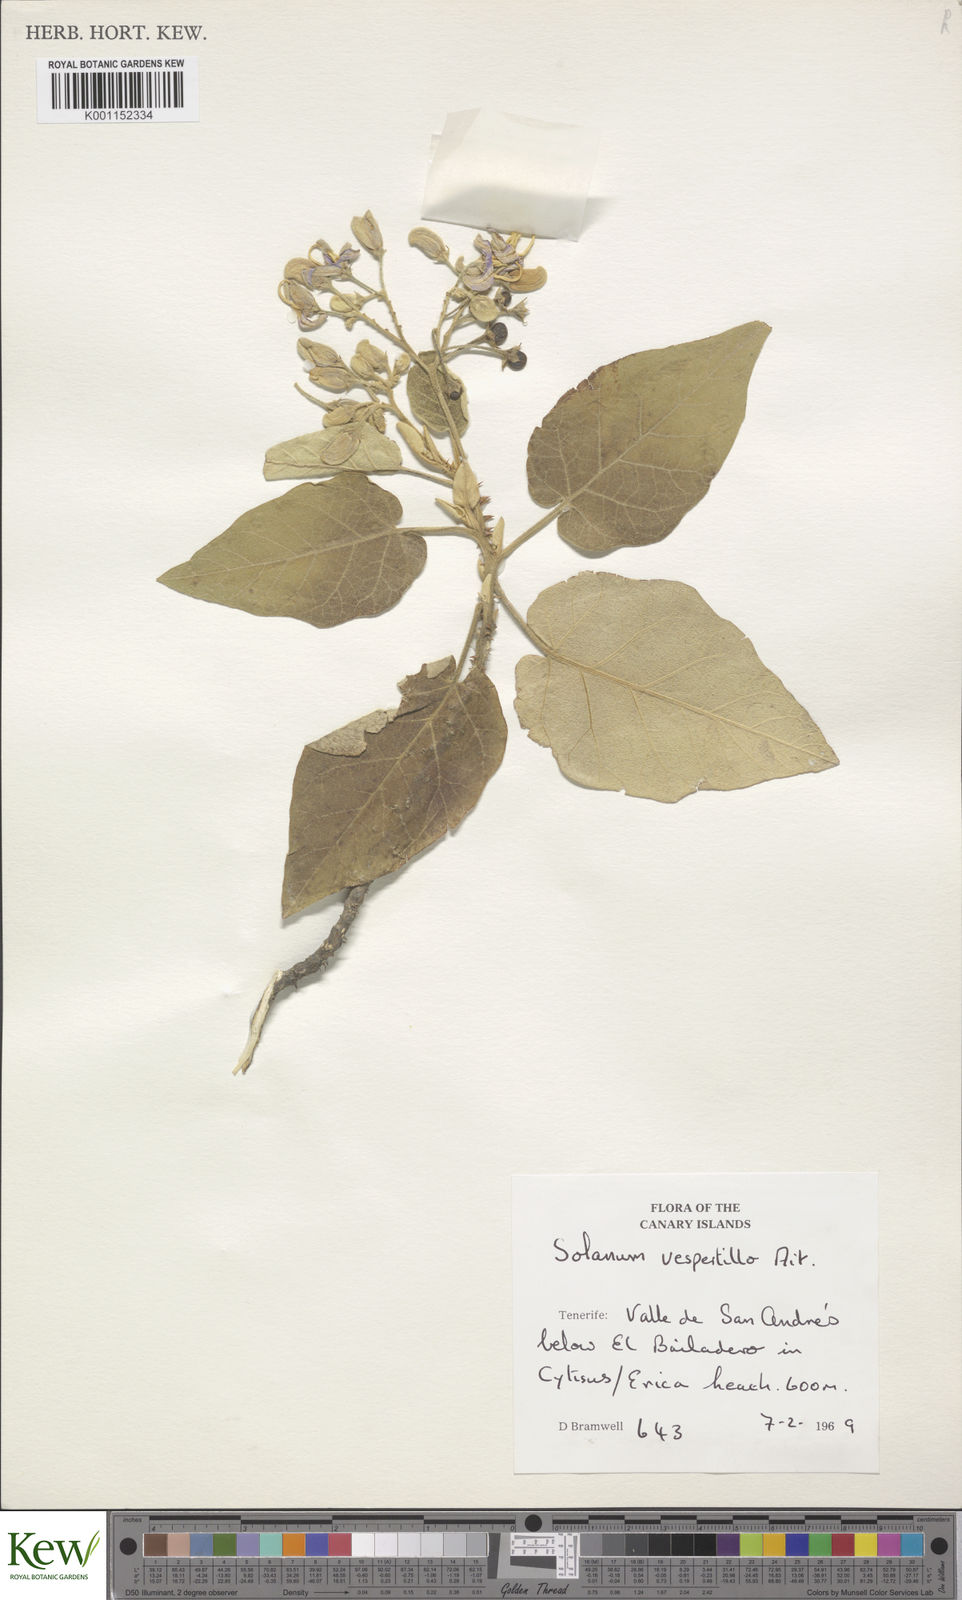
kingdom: Plantae
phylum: Tracheophyta
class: Magnoliopsida
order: Solanales
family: Solanaceae
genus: Solanum
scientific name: Solanum vespertilio
